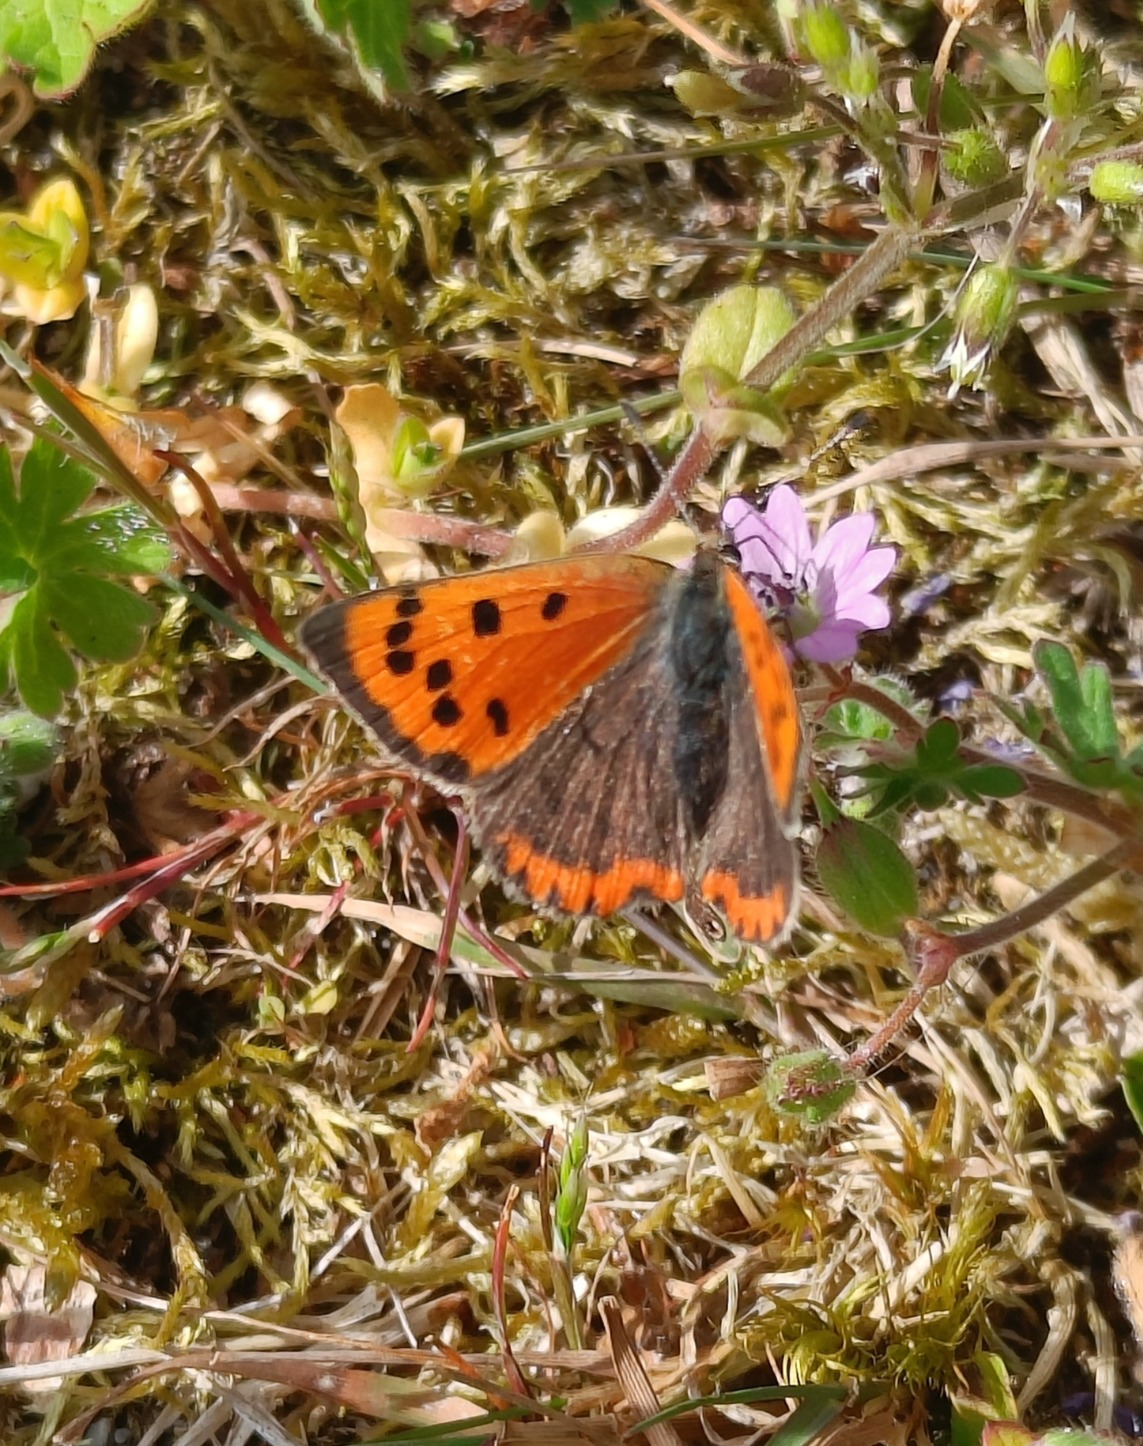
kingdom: Animalia
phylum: Arthropoda
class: Insecta
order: Lepidoptera
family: Lycaenidae
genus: Lycaena
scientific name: Lycaena phlaeas
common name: Lille ildfugl
